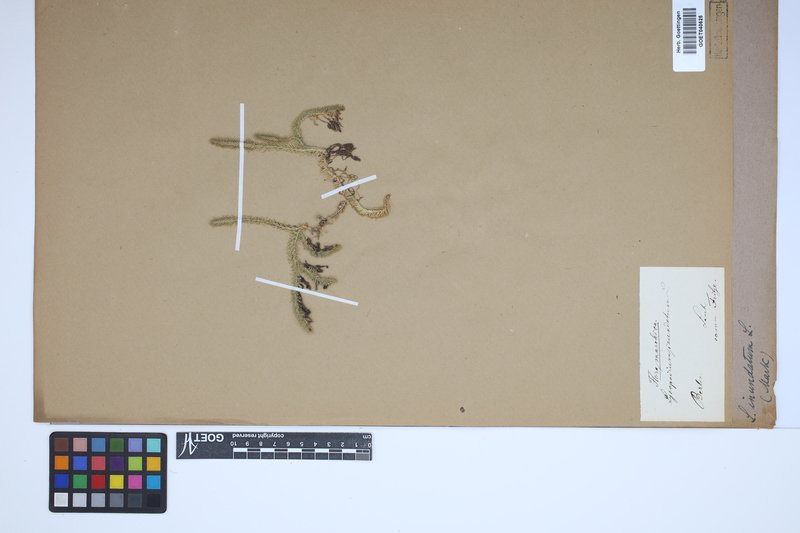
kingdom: Plantae
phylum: Tracheophyta
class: Lycopodiopsida
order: Lycopodiales
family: Lycopodiaceae
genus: Lycopodiella
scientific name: Lycopodiella inundata
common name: Marsh clubmoss
